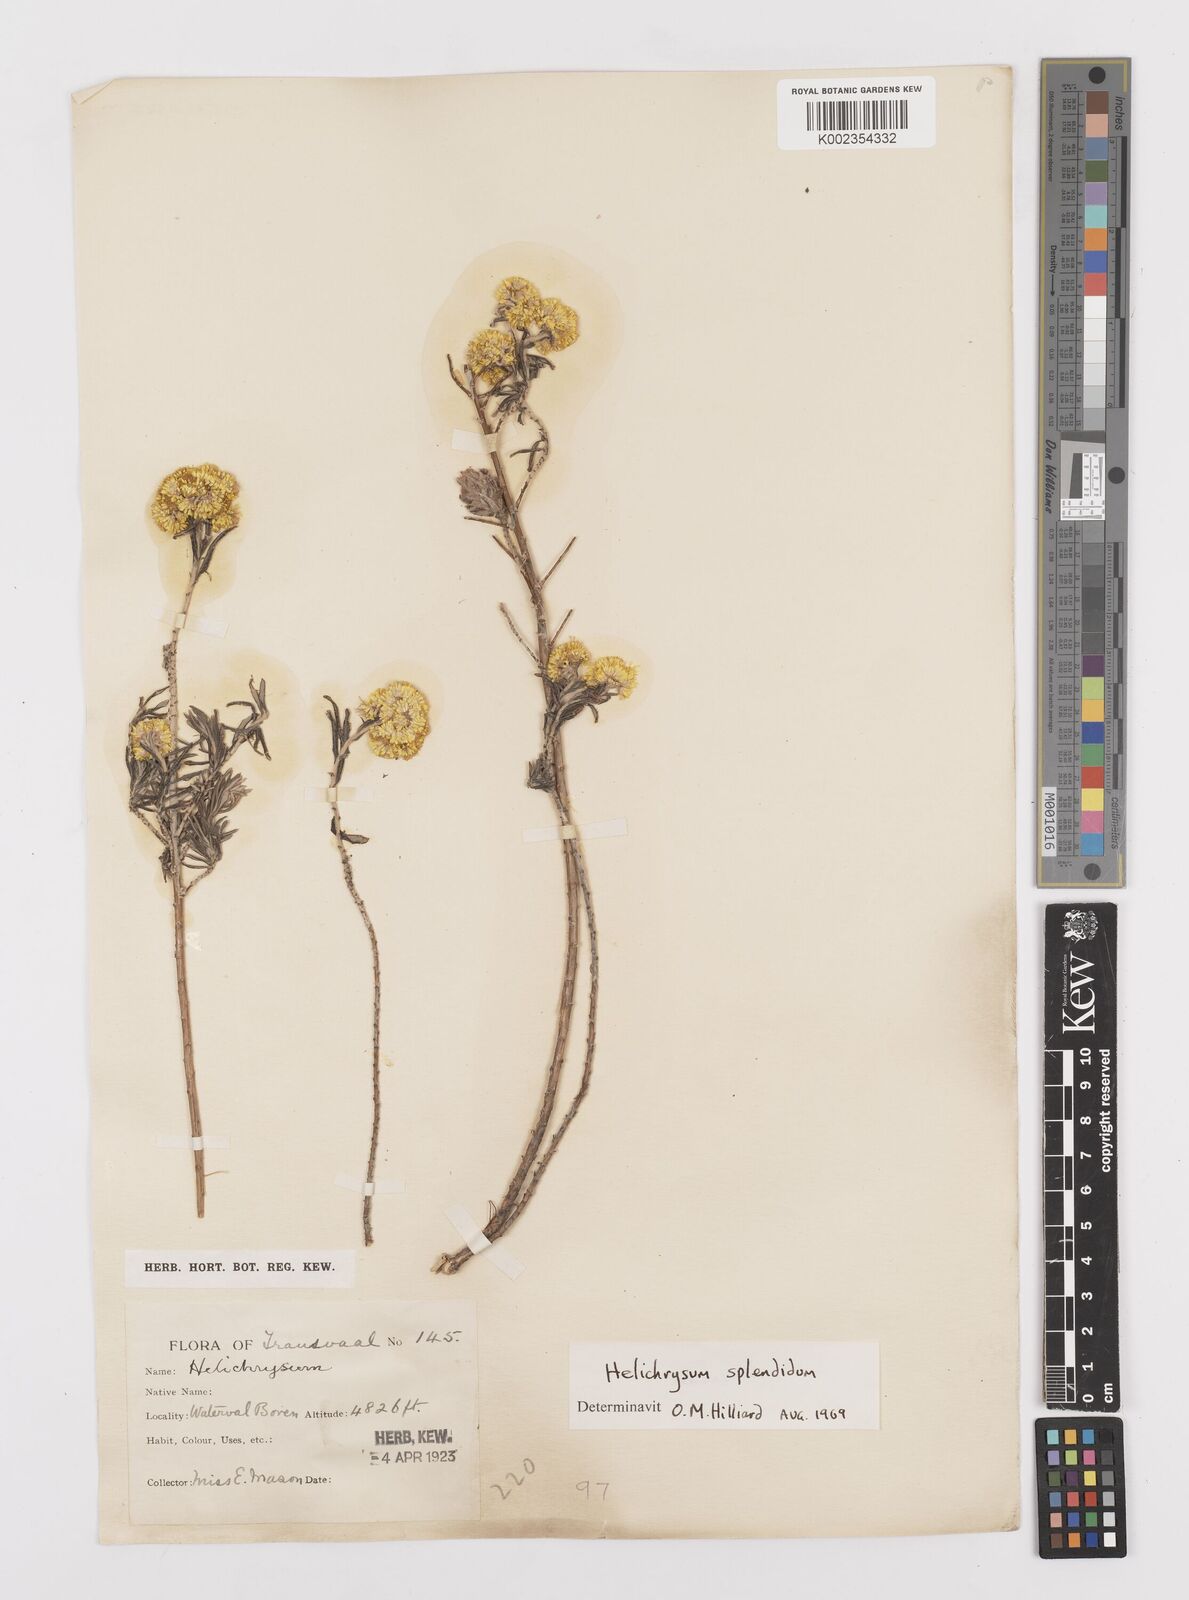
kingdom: Plantae
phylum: Tracheophyta
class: Magnoliopsida
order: Asterales
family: Asteraceae
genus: Helichrysum
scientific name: Helichrysum splendidum
